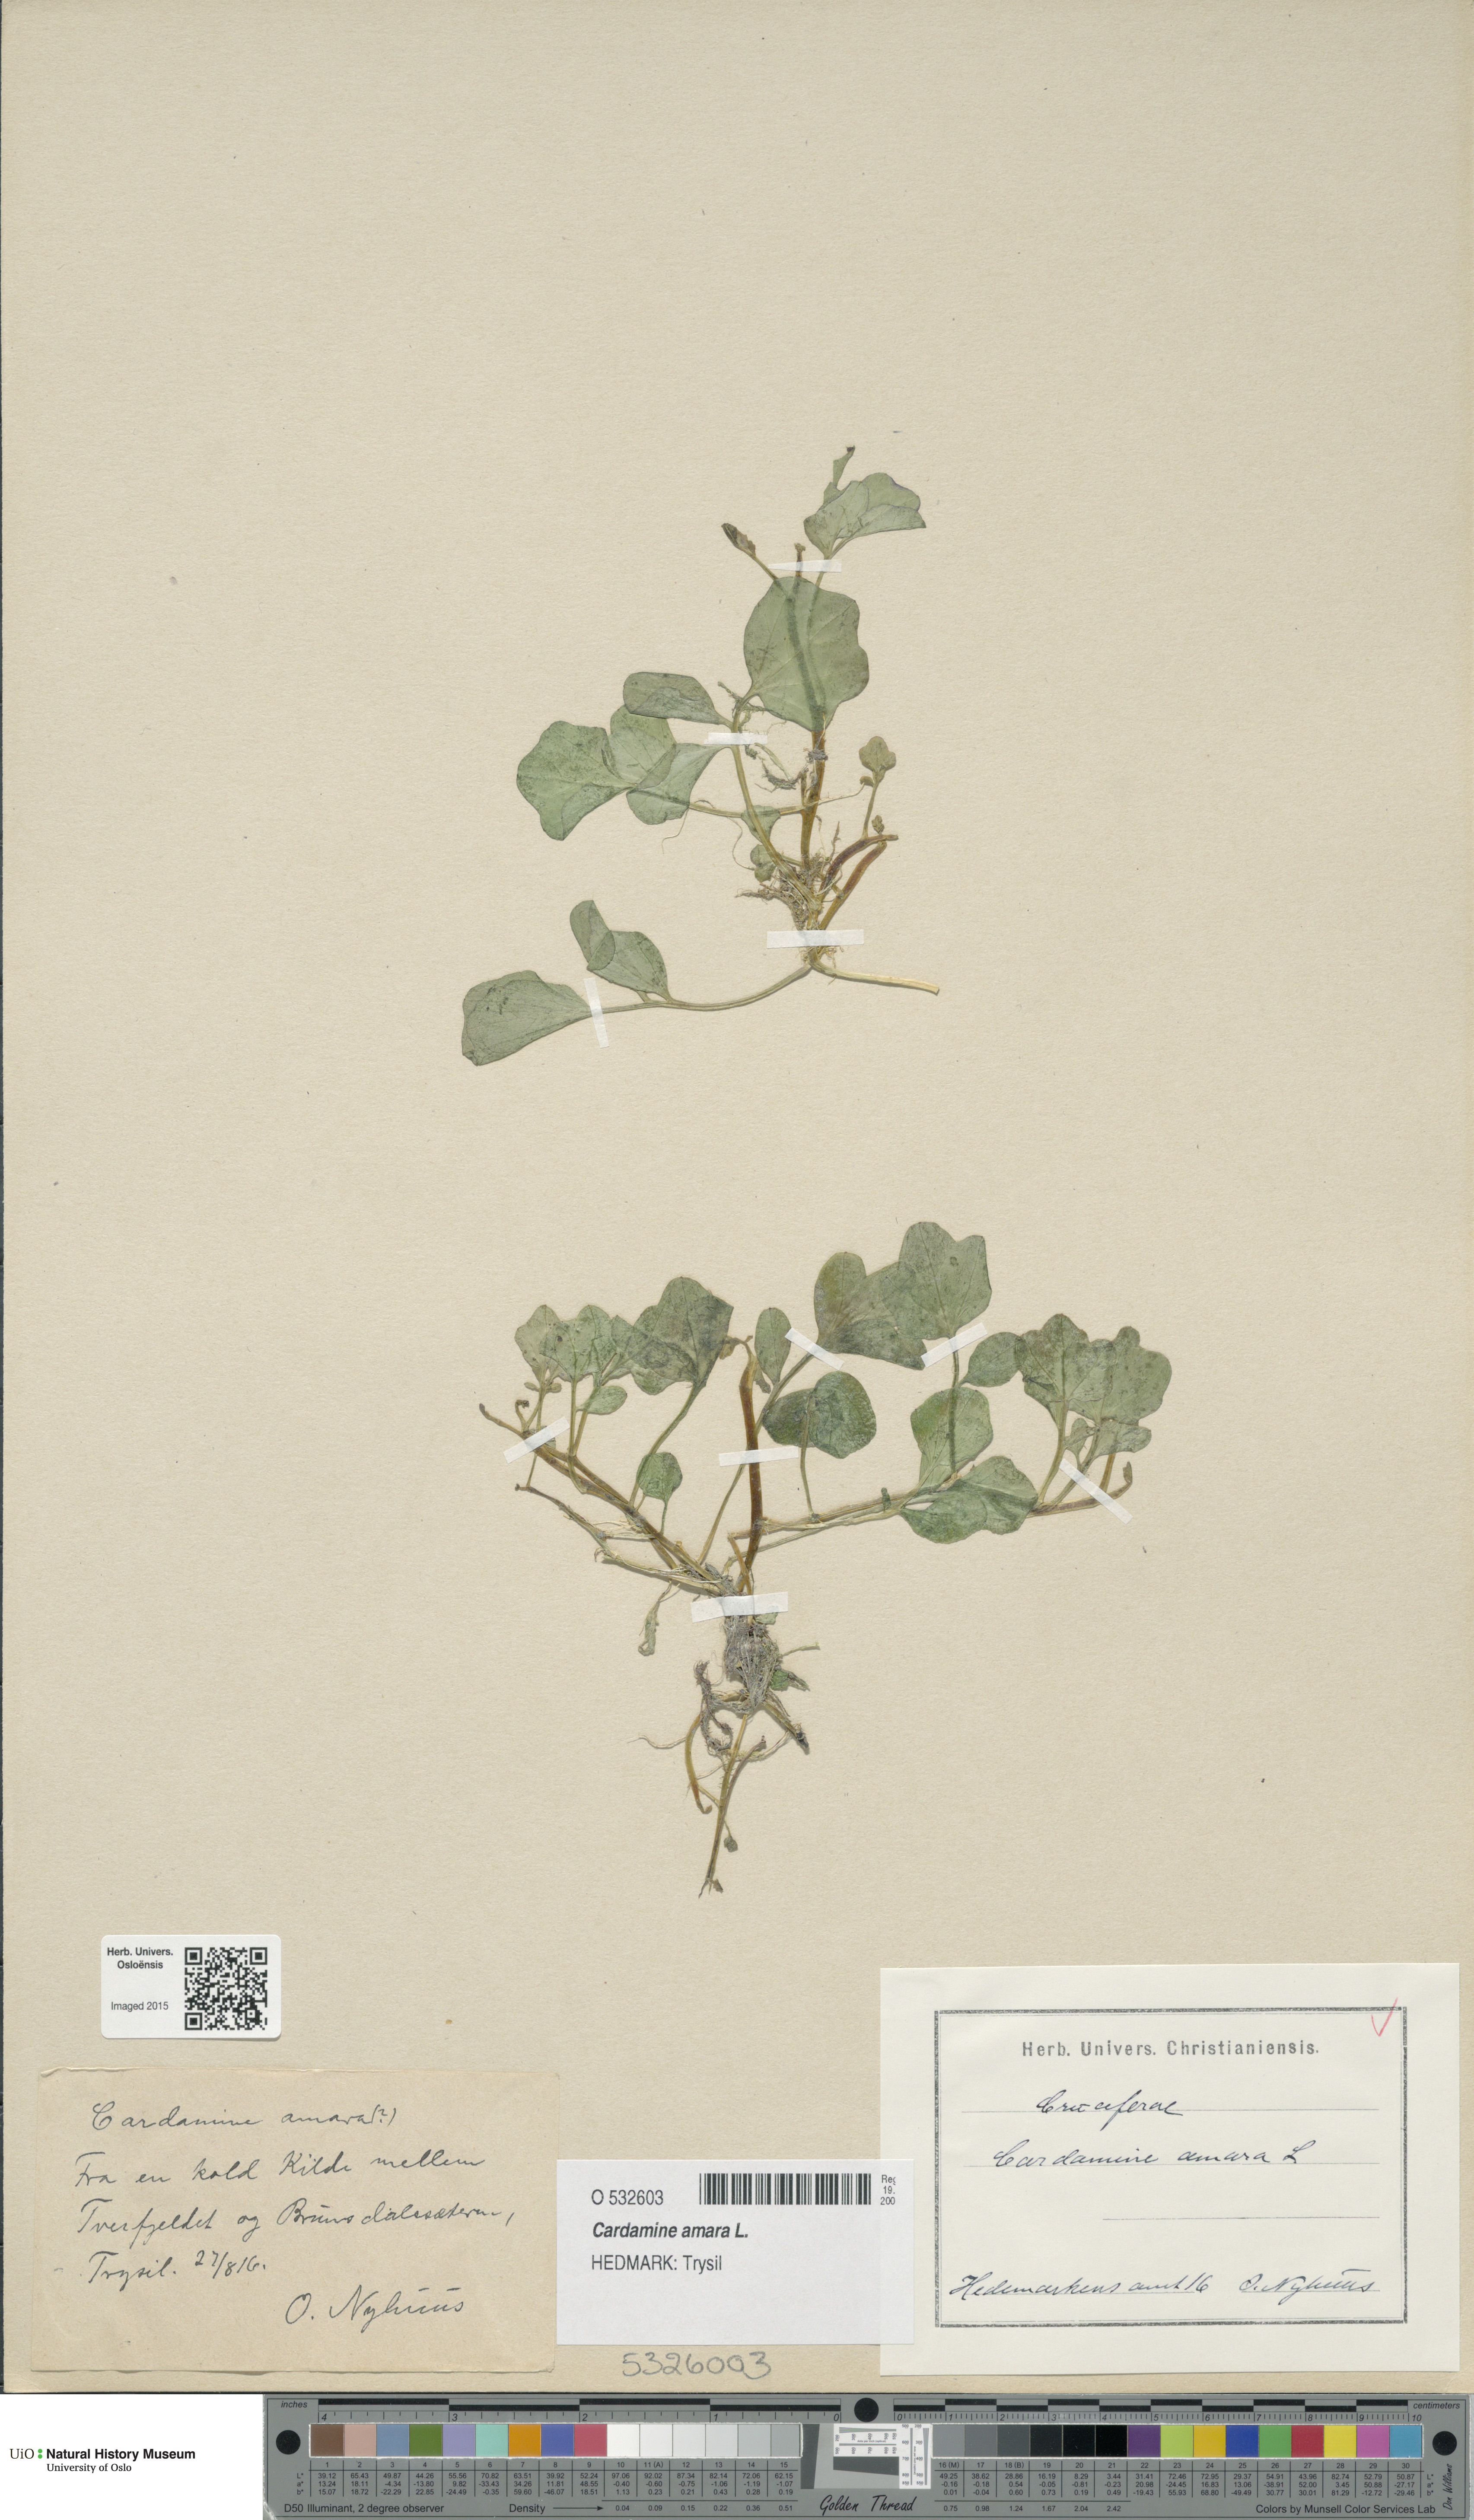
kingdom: Plantae
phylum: Tracheophyta
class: Magnoliopsida
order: Brassicales
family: Brassicaceae
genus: Cardamine
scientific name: Cardamine amara
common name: Large bitter-cress
